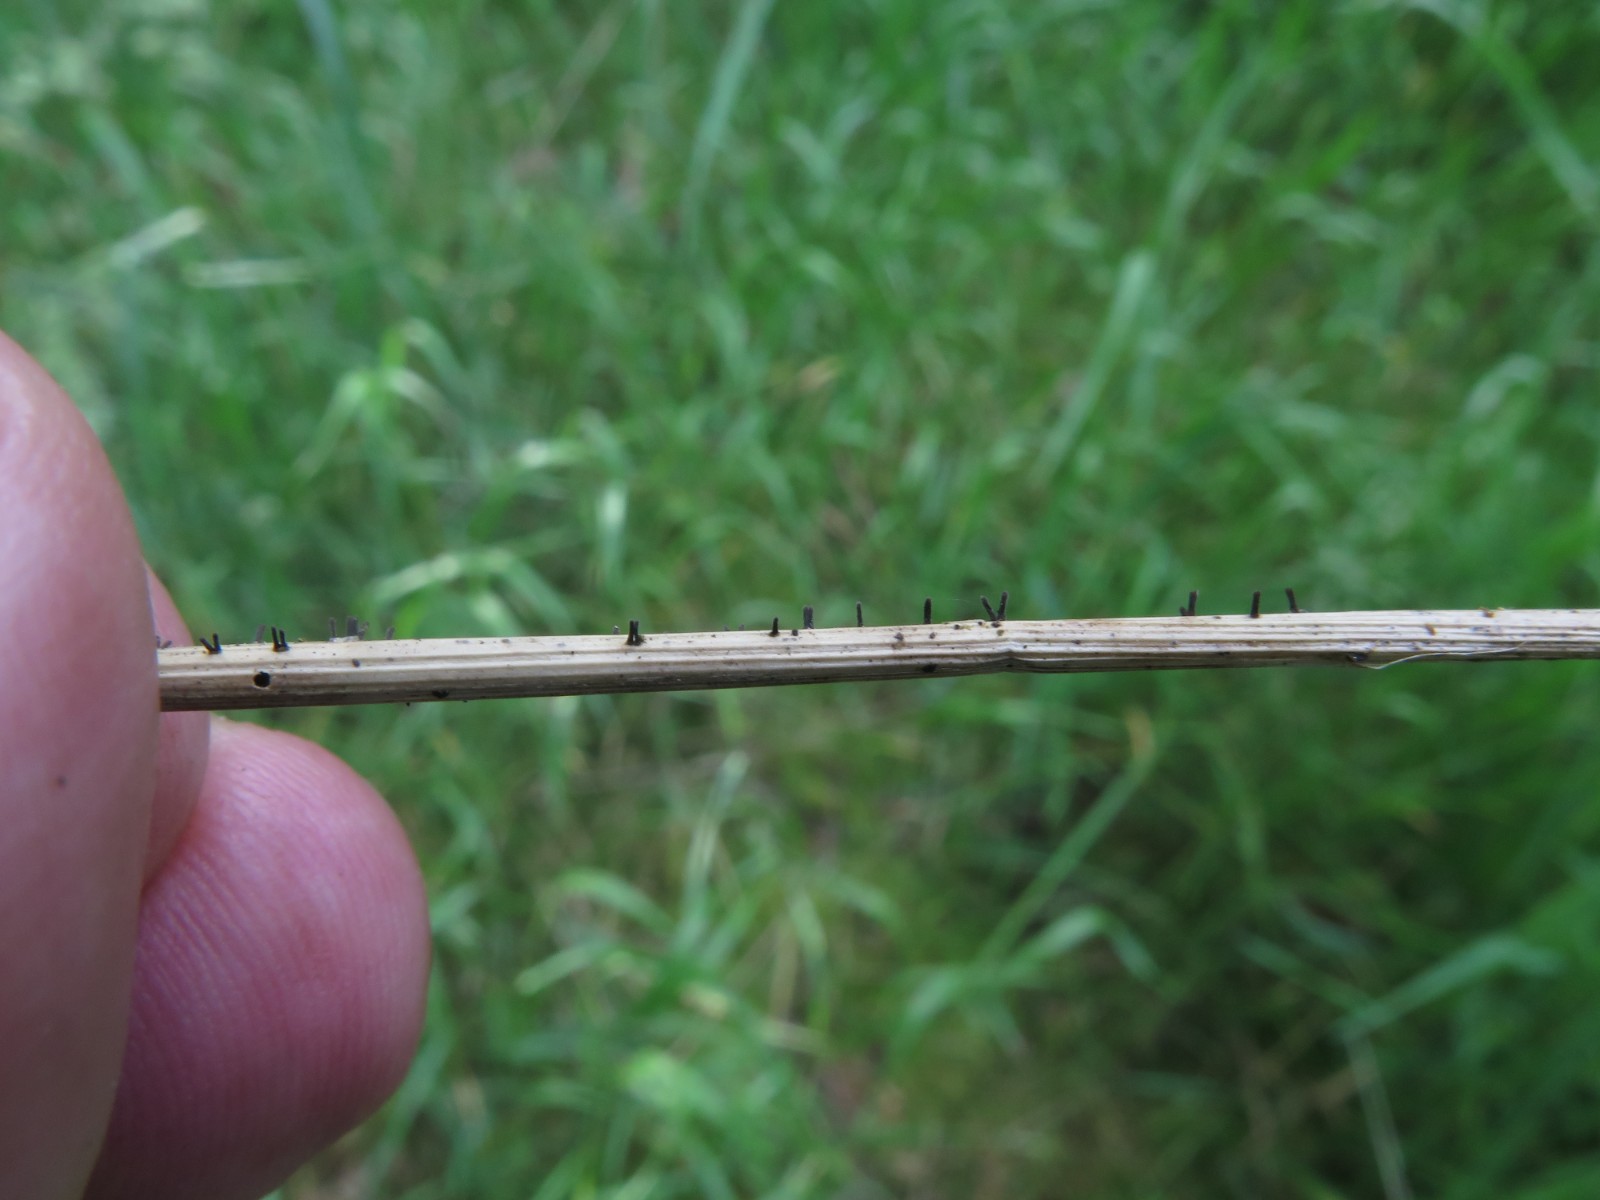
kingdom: Fungi
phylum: Ascomycota
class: Dothideomycetes
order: Acrospermales
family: Acrospermaceae
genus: Acrospermum
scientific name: Acrospermum graminum
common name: græs-stængeltunge
